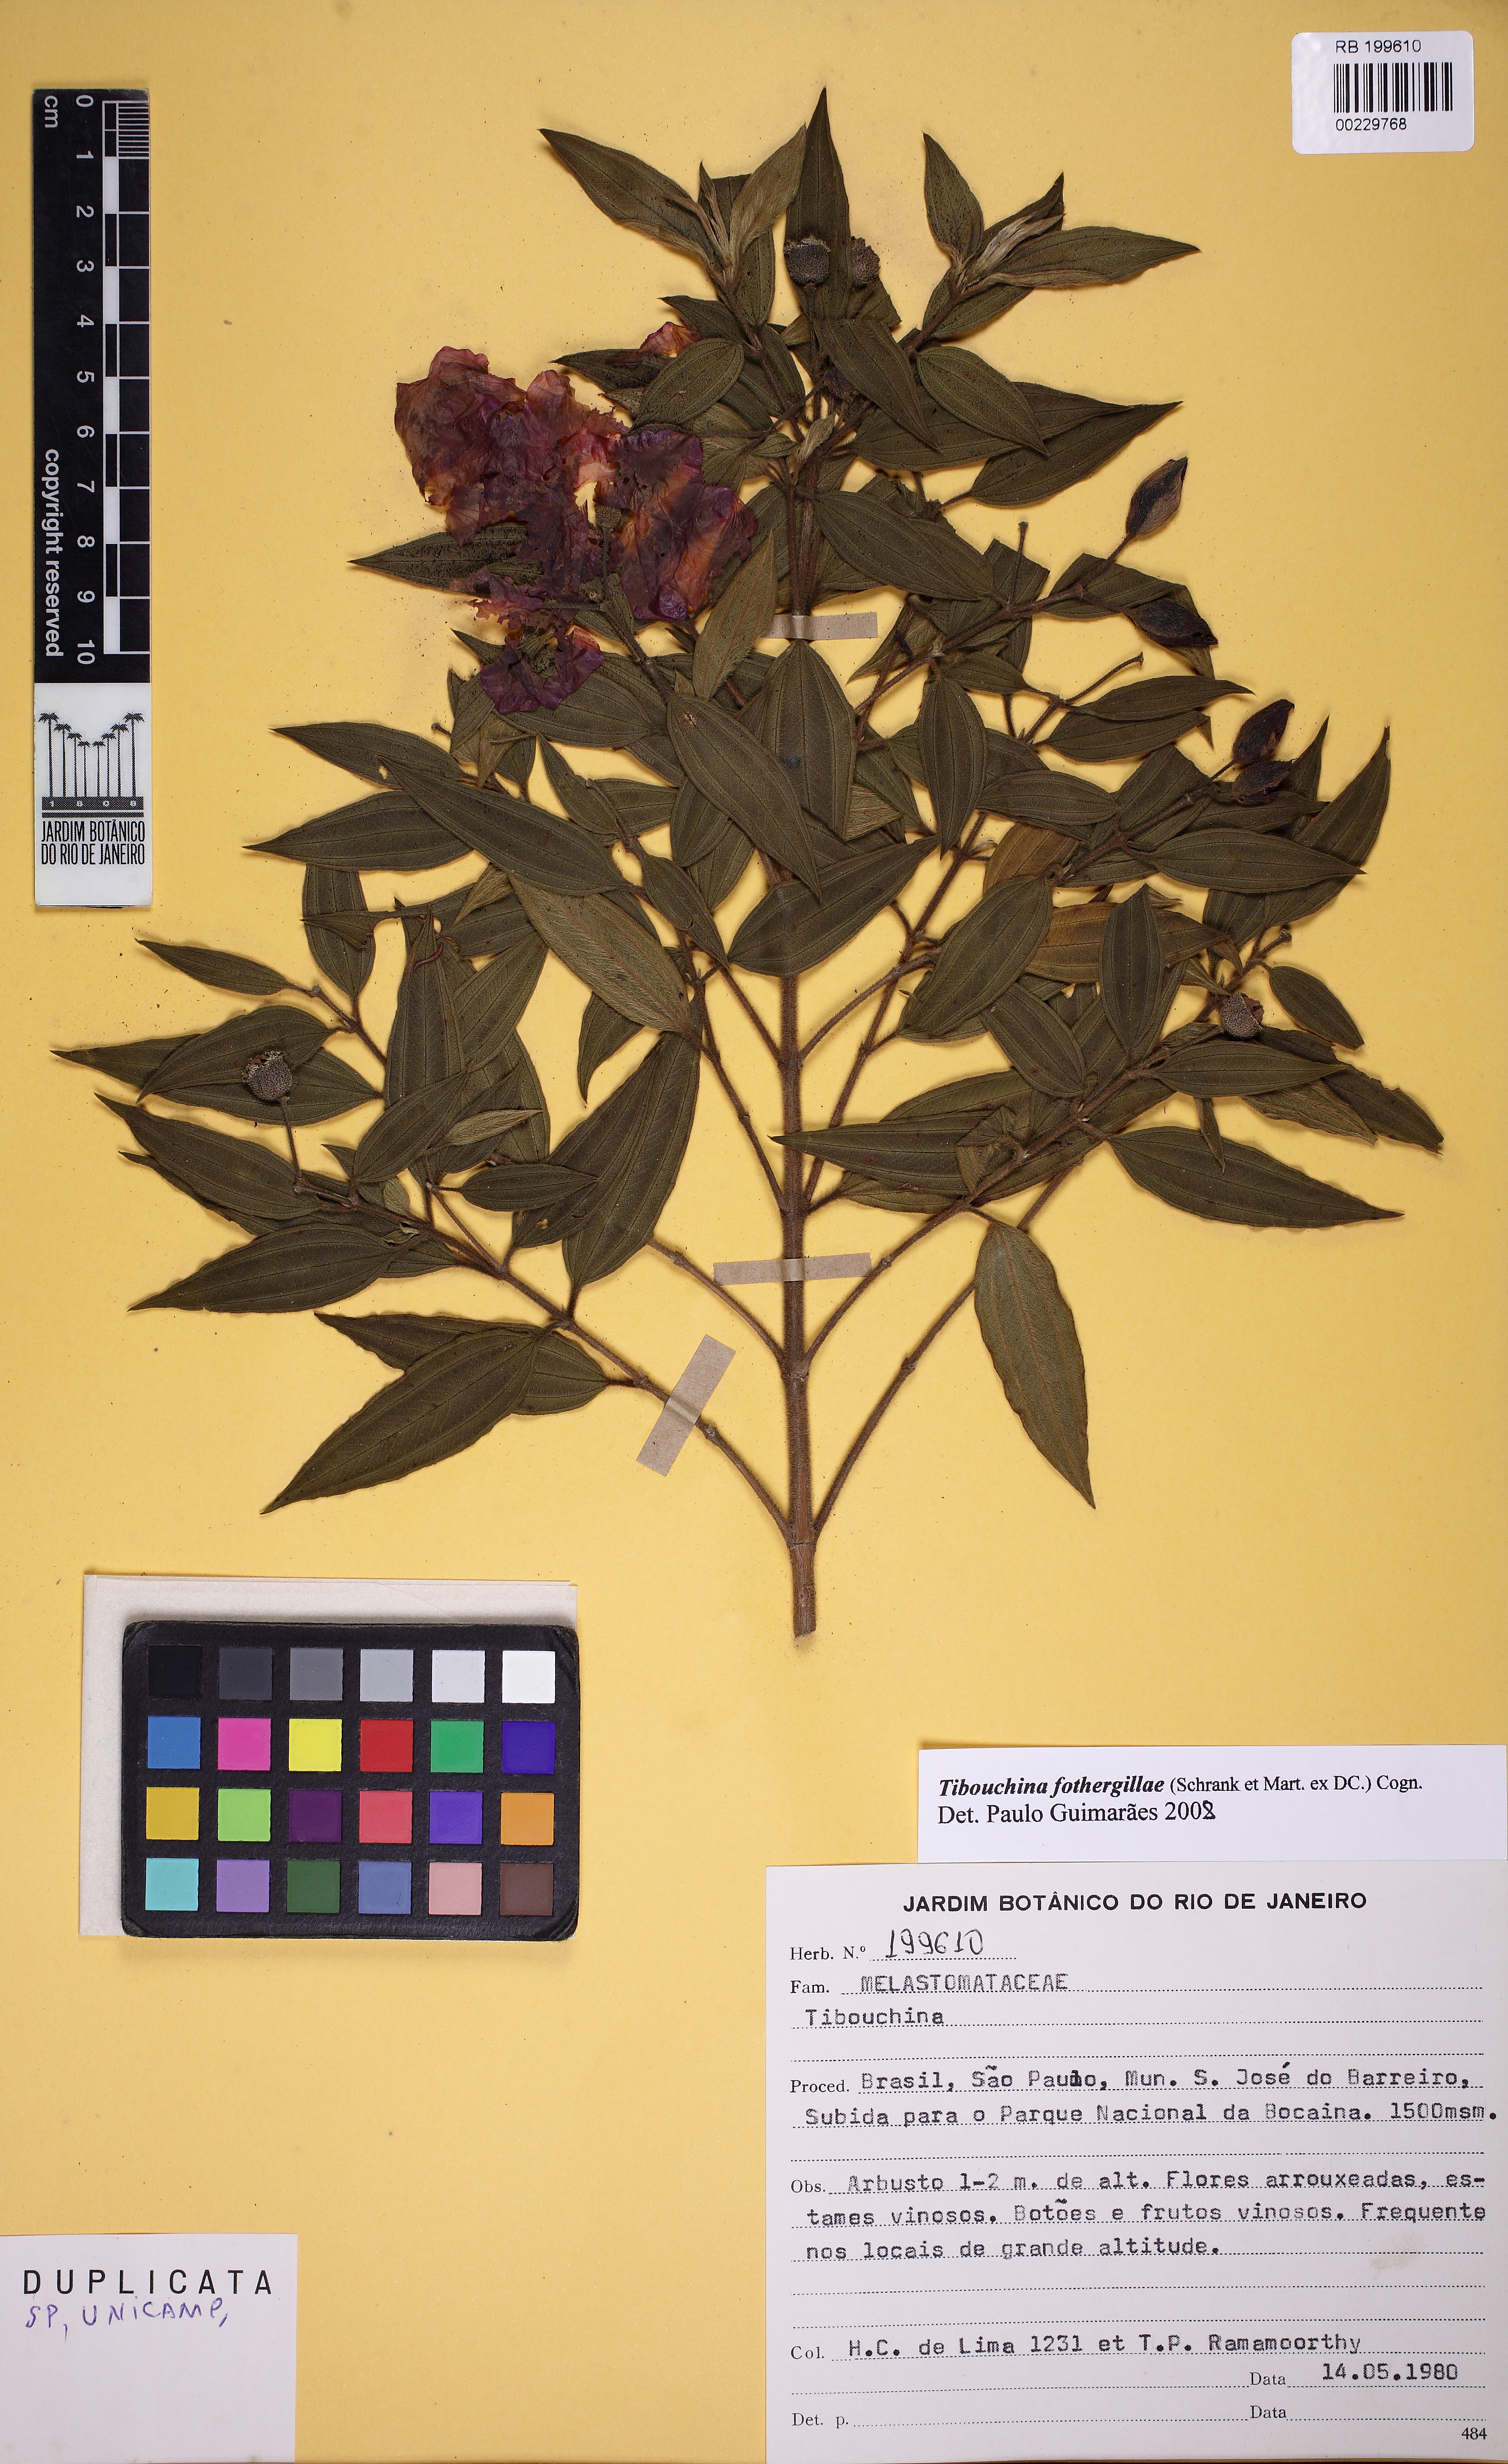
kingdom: Plantae
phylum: Tracheophyta
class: Magnoliopsida
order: Myrtales
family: Melastomataceae
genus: Pleroma
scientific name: Pleroma fothergillae
